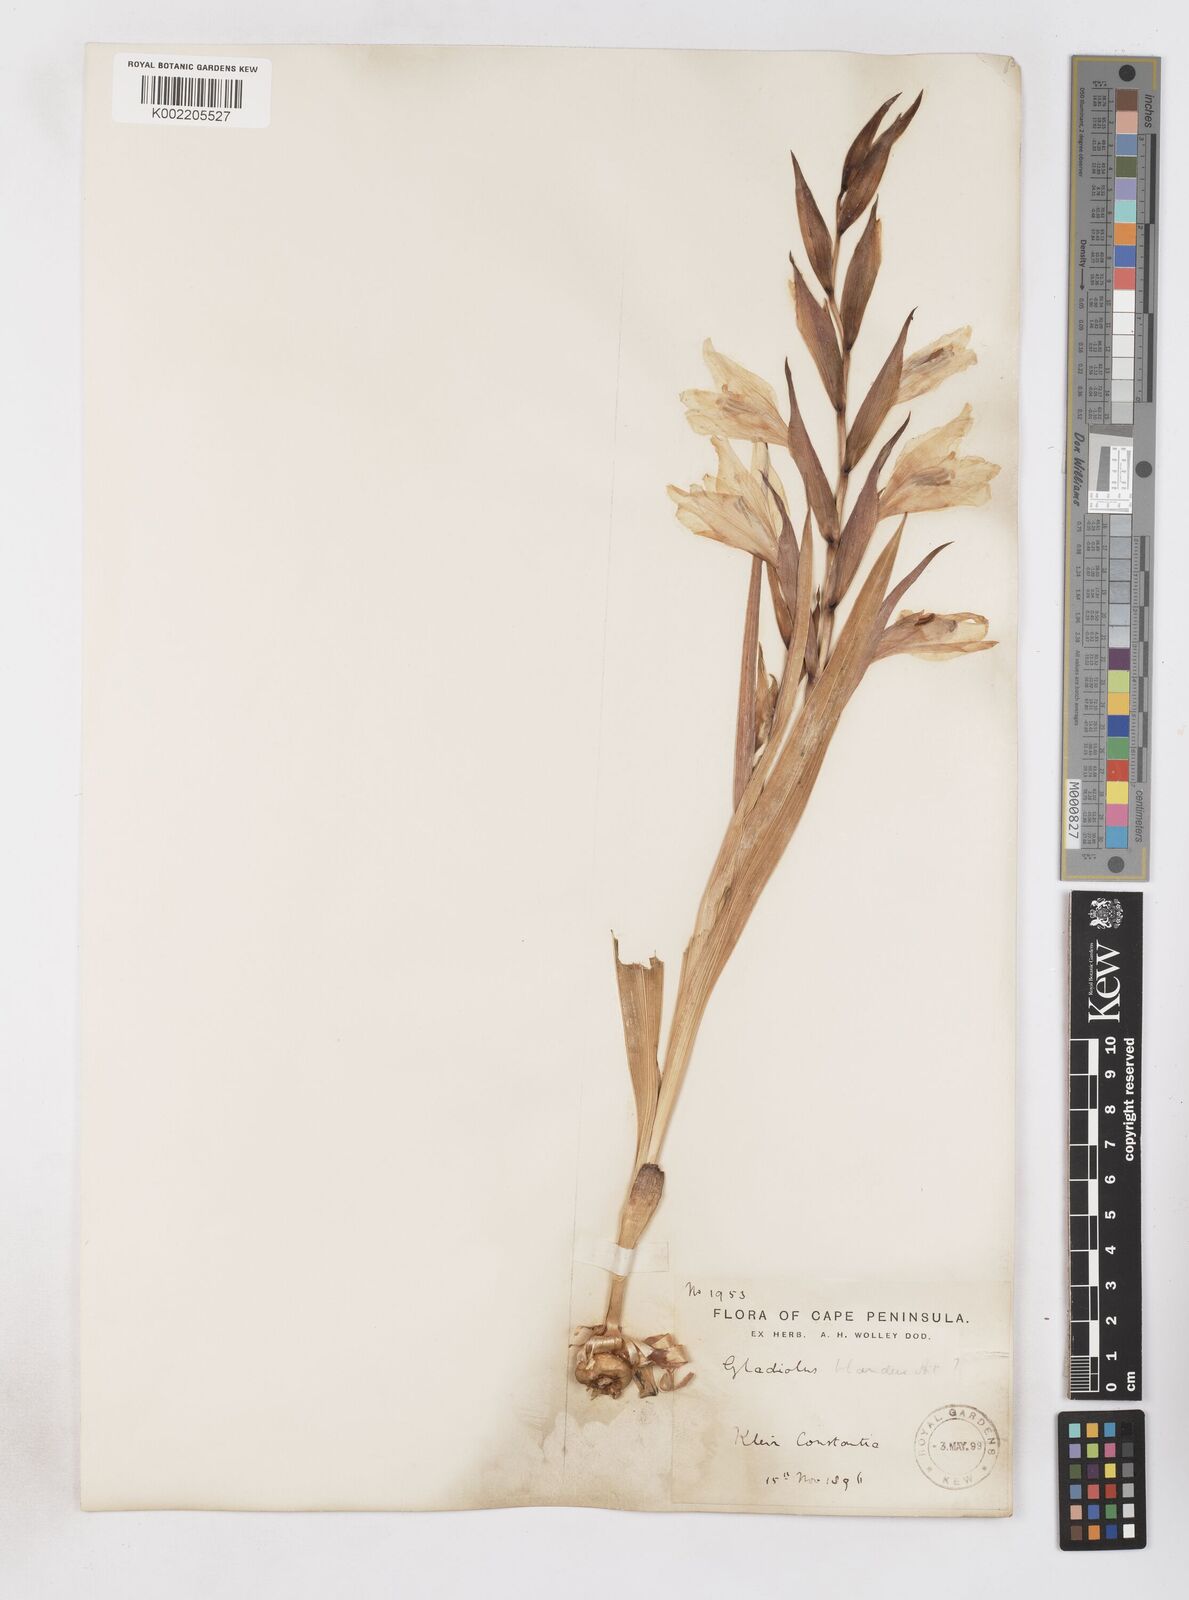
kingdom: Plantae
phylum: Tracheophyta
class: Liliopsida
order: Asparagales
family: Iridaceae
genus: Gladiolus
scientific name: Gladiolus carneus
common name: Painted-lady
